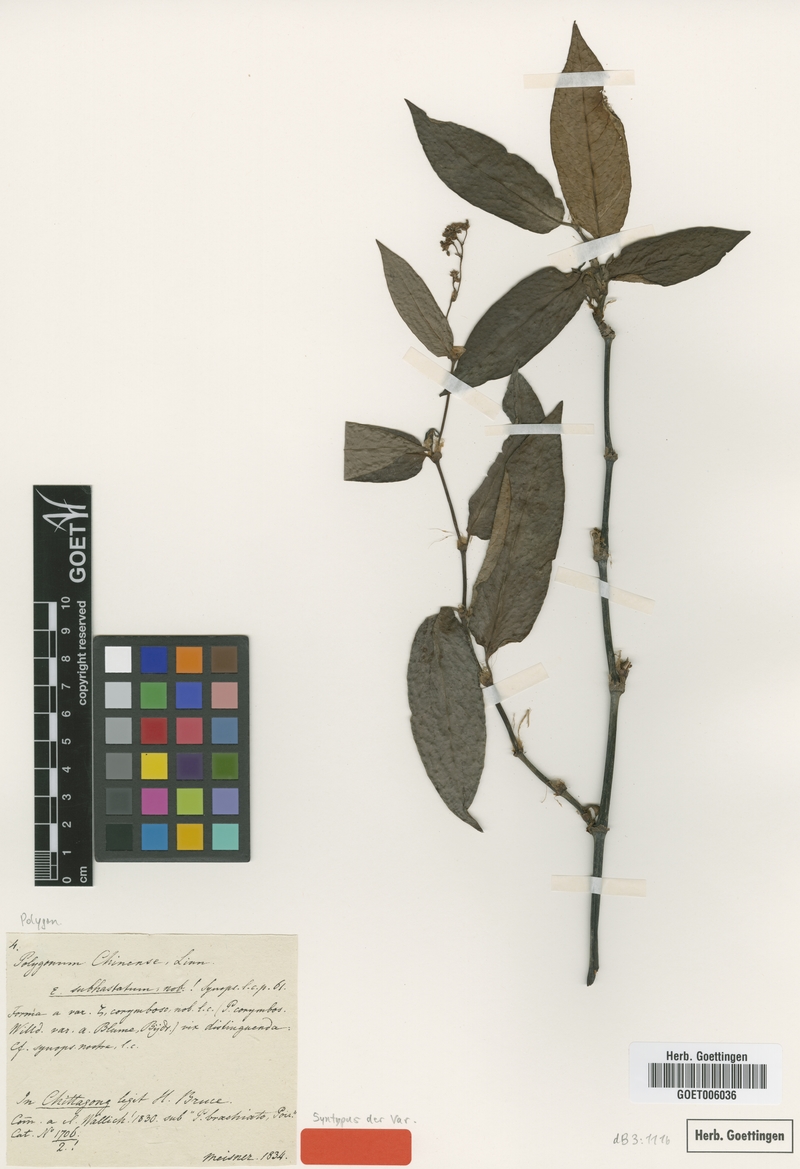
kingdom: Plantae
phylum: Tracheophyta
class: Magnoliopsida
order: Caryophyllales
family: Polygonaceae
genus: Persicaria
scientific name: Persicaria chinensis
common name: Chinese knotweed
